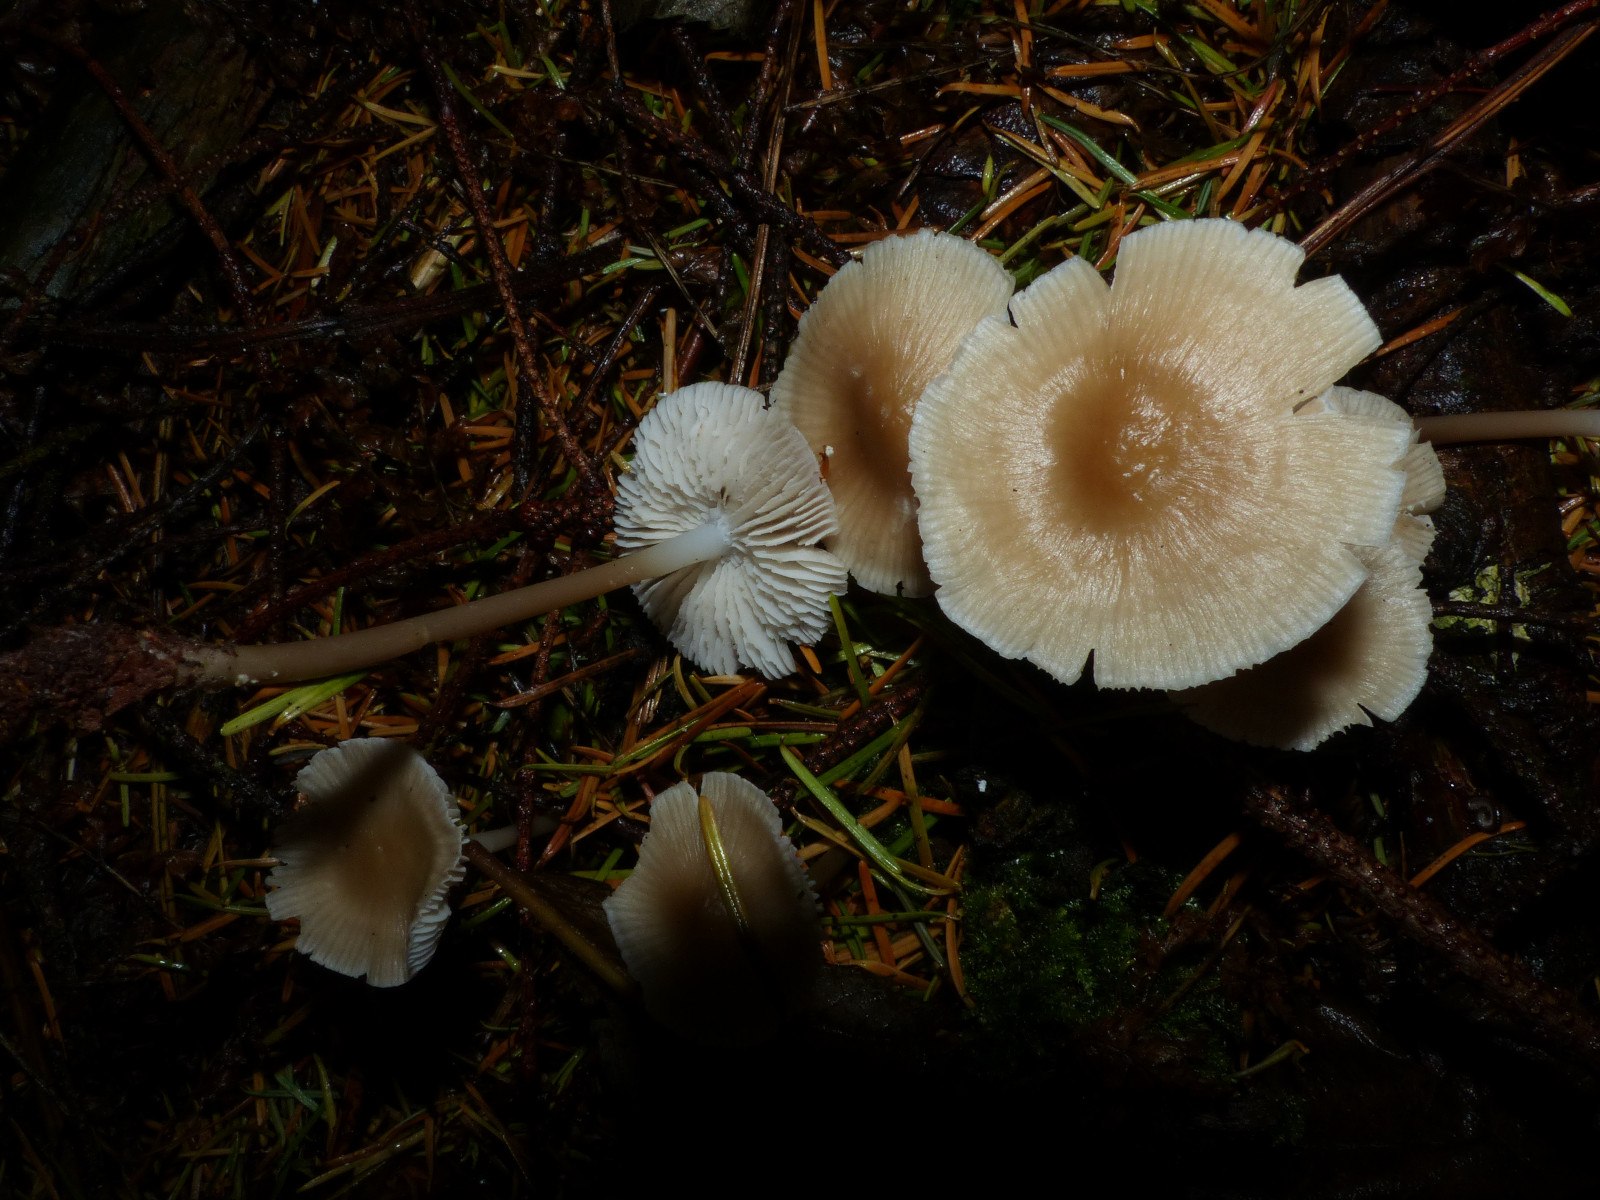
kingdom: Fungi
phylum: Basidiomycota
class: Agaricomycetes
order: Agaricales
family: Mycenaceae
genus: Mycena
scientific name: Mycena galericulata
